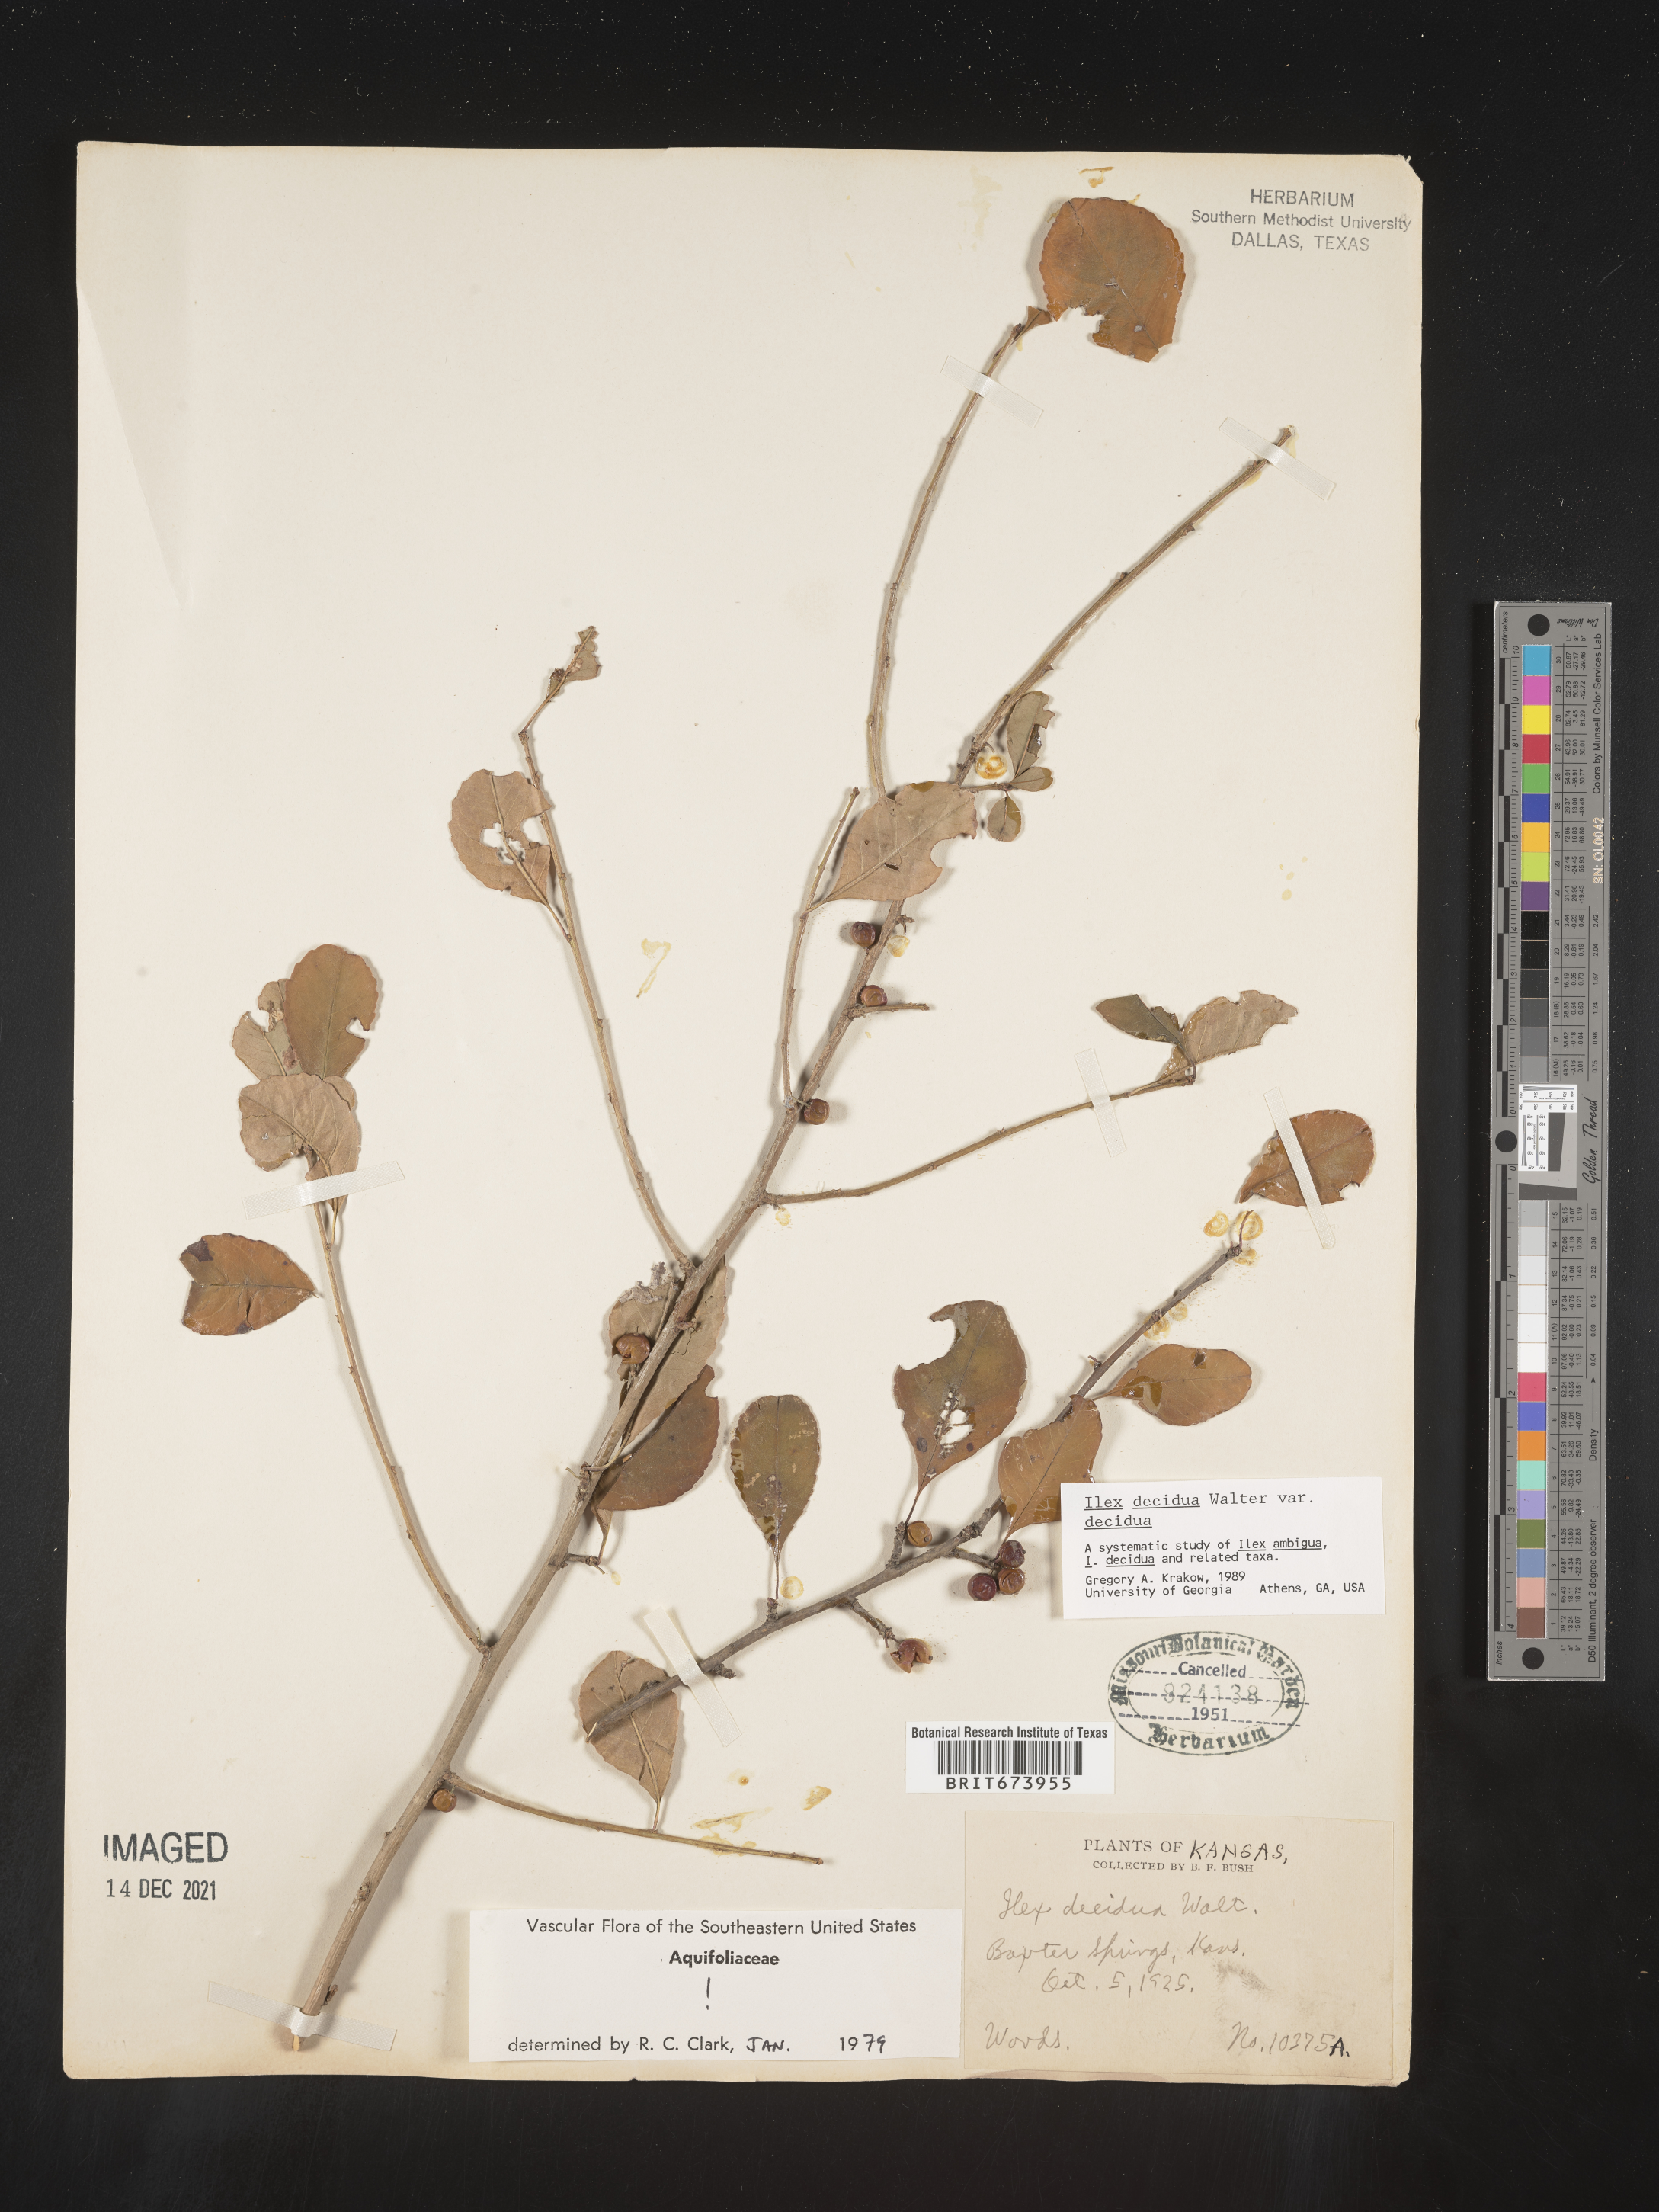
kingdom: Plantae
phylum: Tracheophyta
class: Magnoliopsida
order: Aquifoliales
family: Aquifoliaceae
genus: Ilex
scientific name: Ilex decidua
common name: Possum-haw
